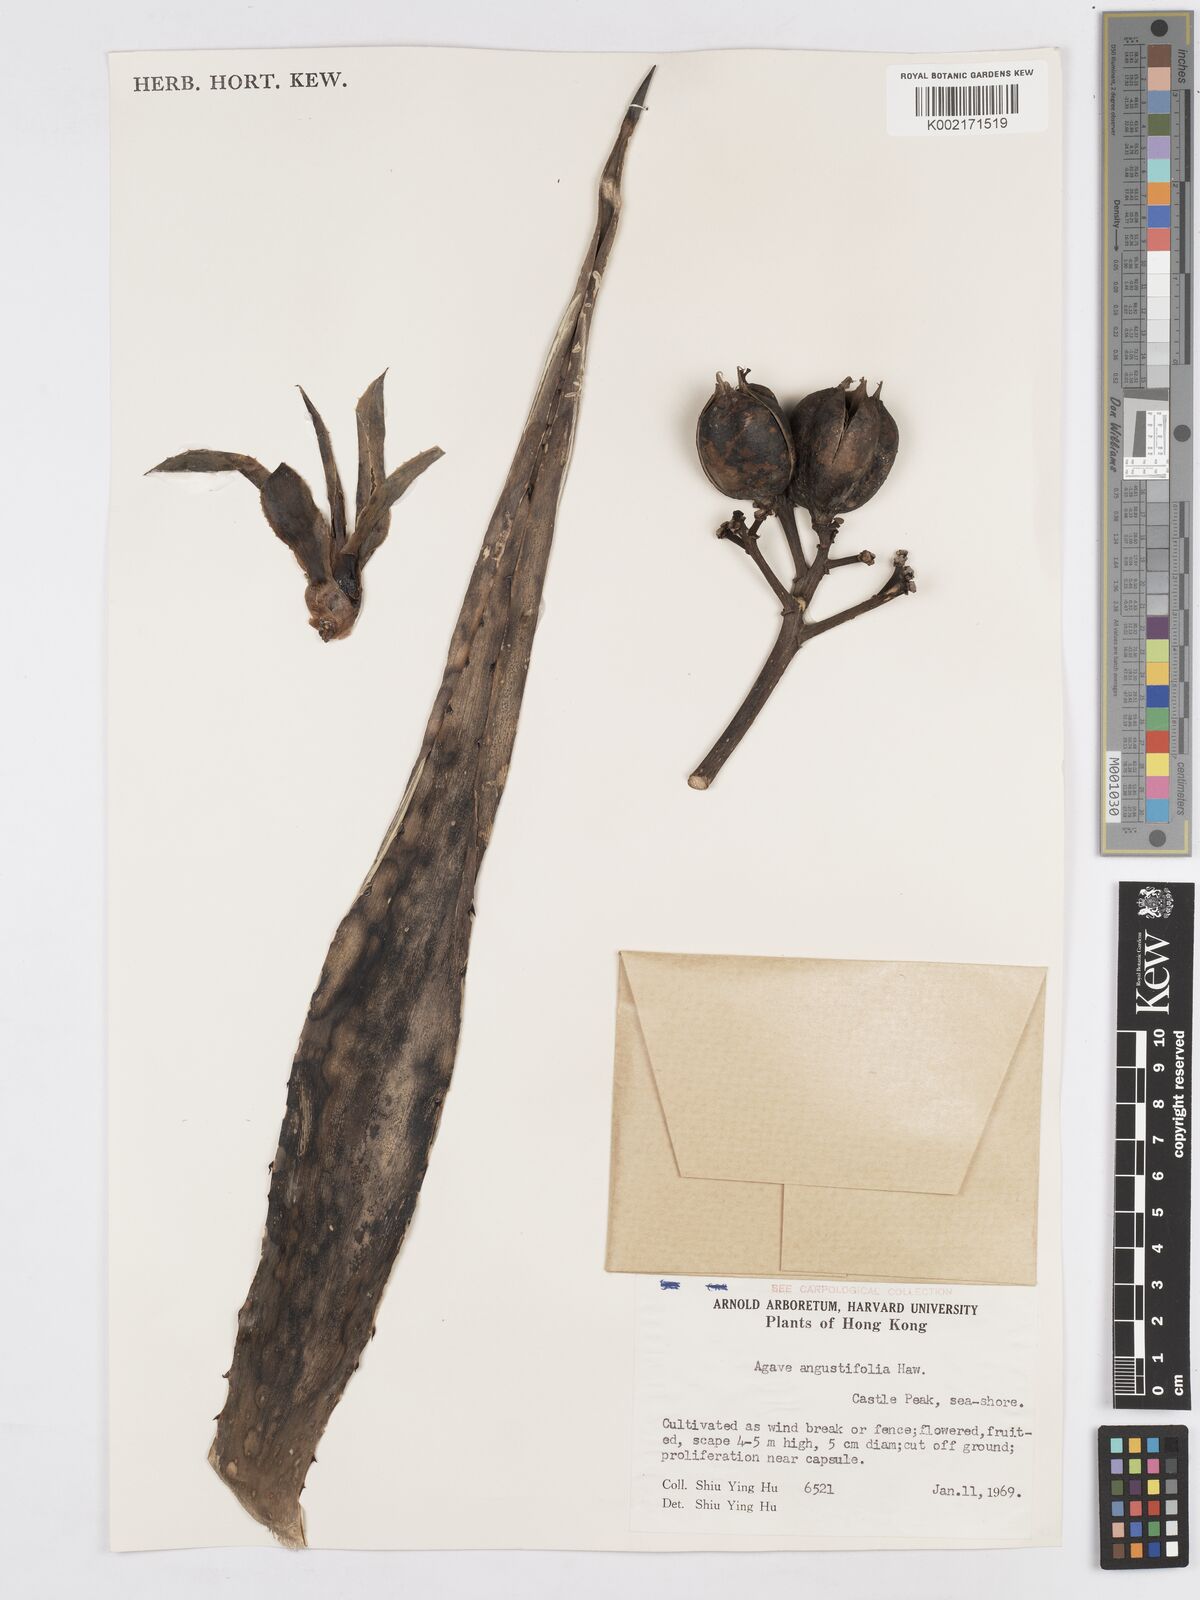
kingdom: Plantae
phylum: Tracheophyta
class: Liliopsida
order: Asparagales
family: Asparagaceae
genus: Agave
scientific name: Agave angustifolia
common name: Mescal agave
